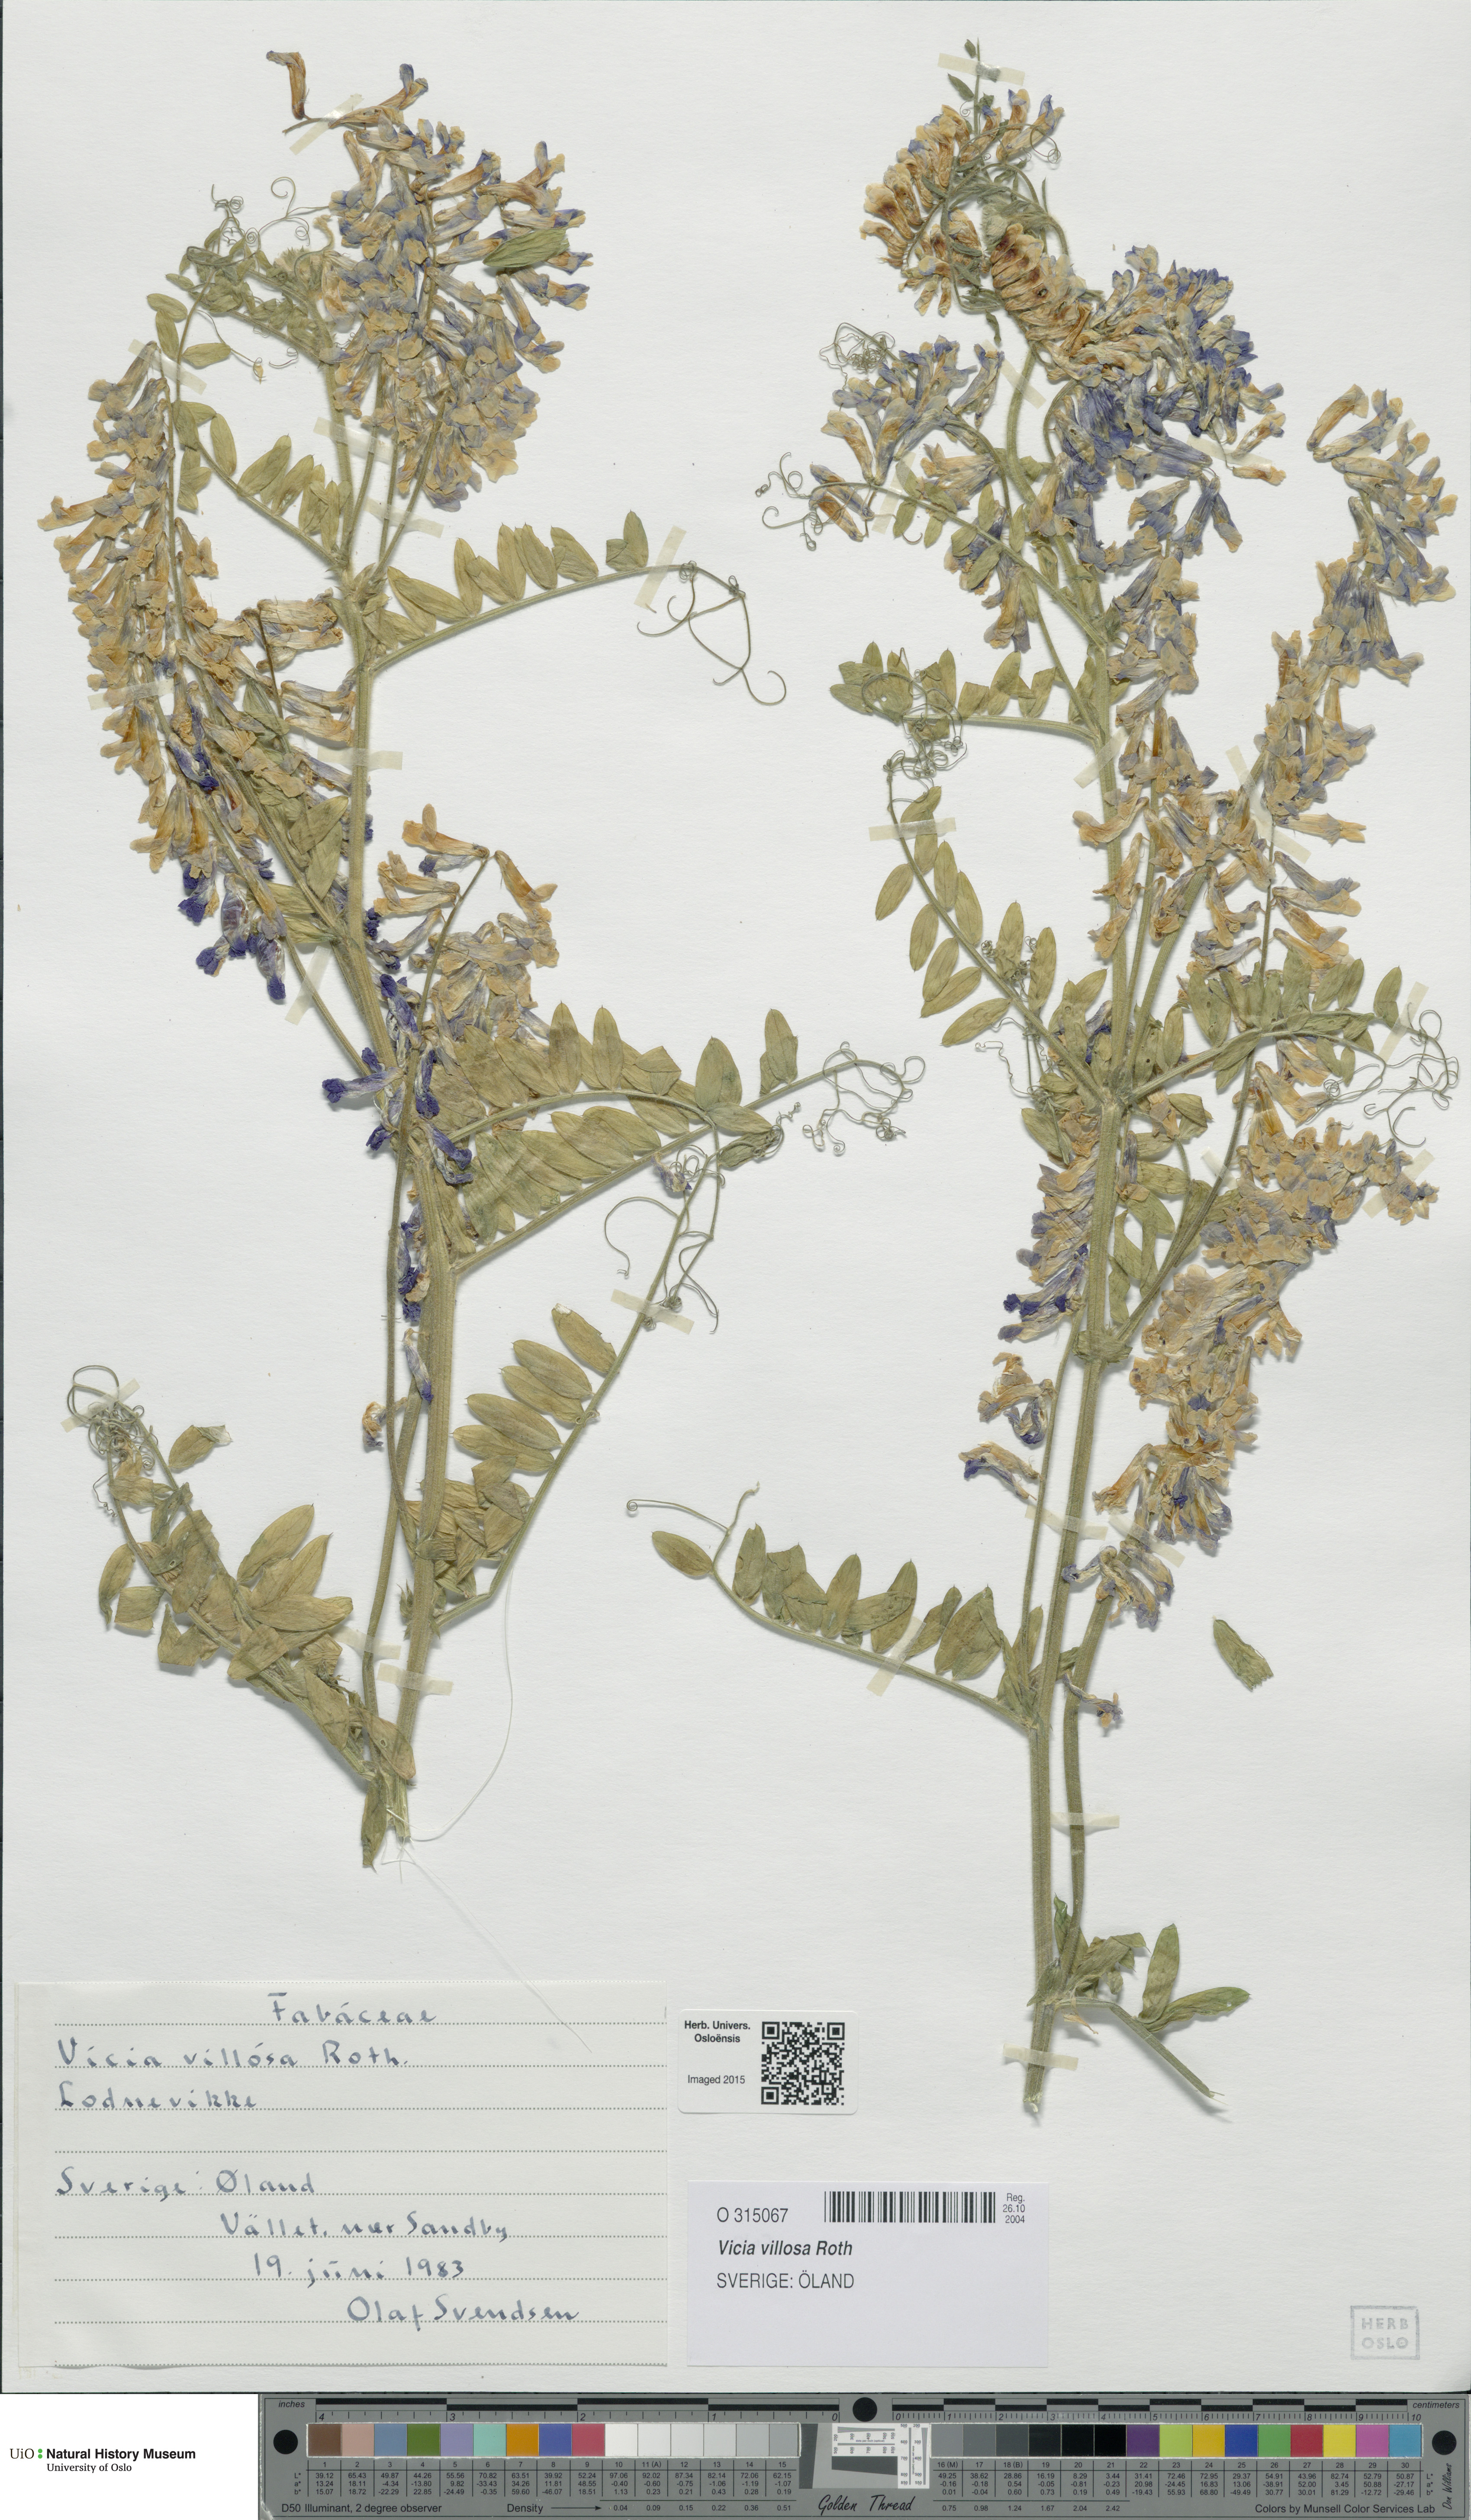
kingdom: Plantae
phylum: Tracheophyta
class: Magnoliopsida
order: Fabales
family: Fabaceae
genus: Vicia
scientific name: Vicia villosa
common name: Fodder vetch
